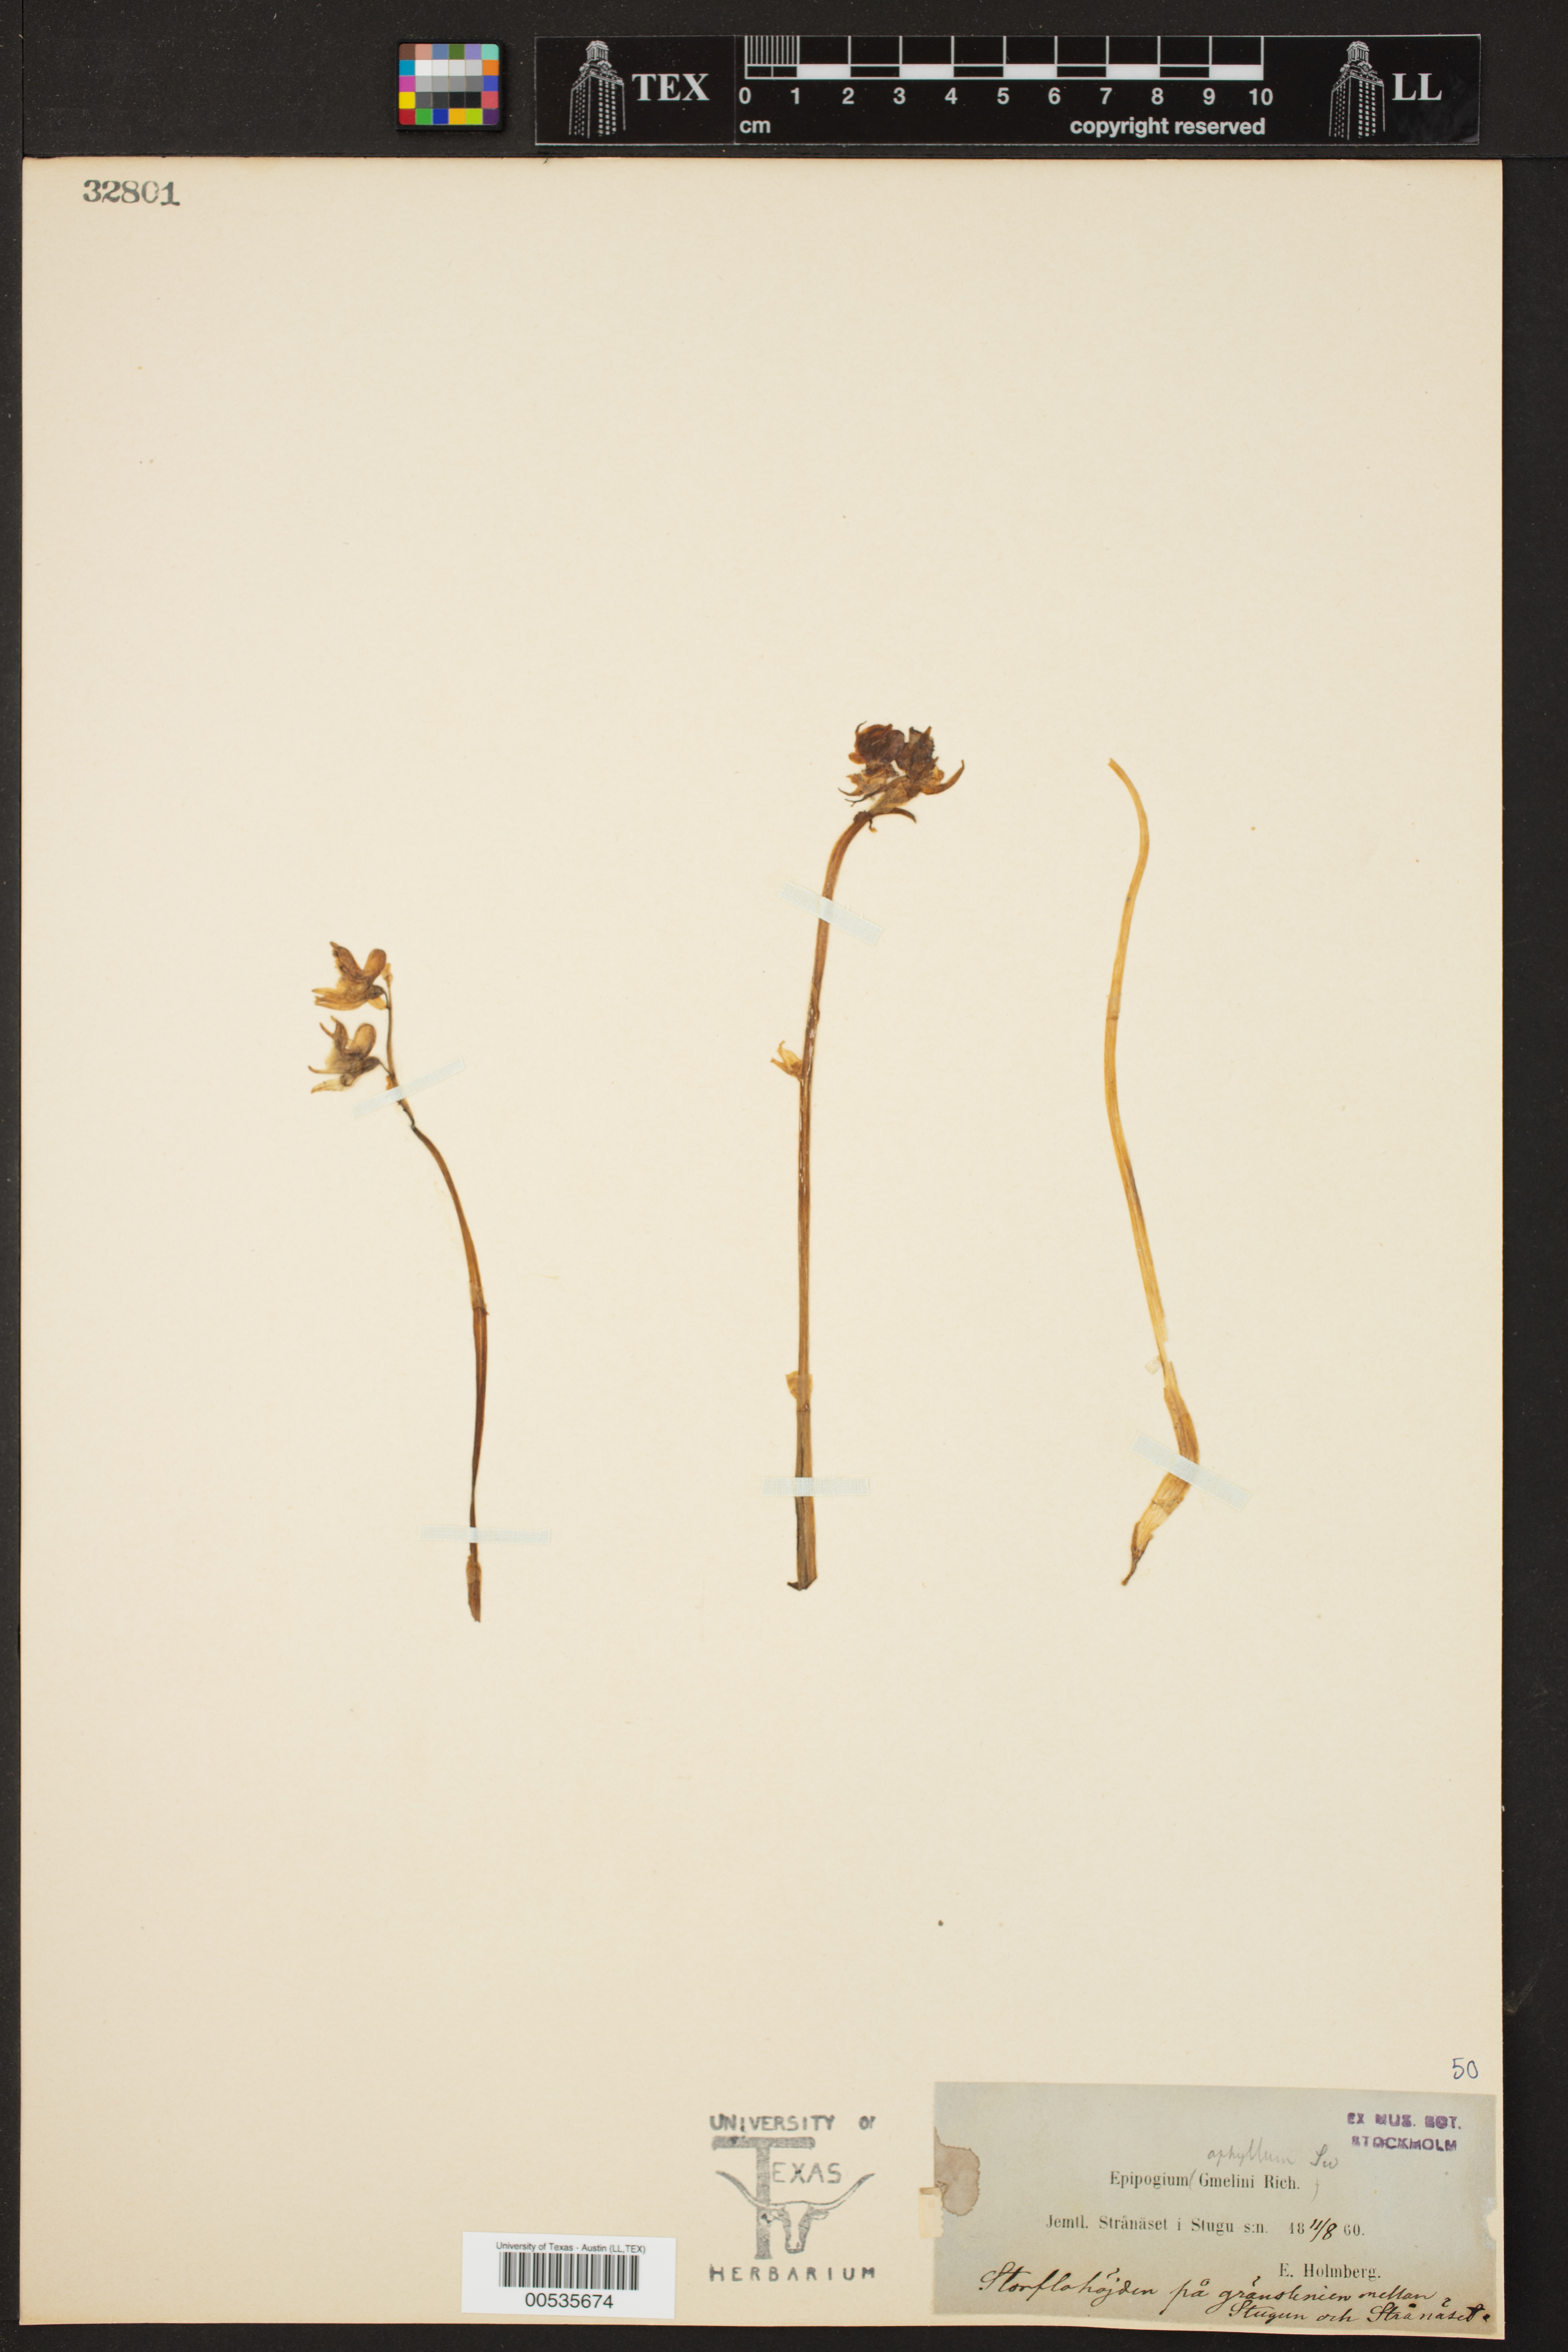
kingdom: Plantae
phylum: Tracheophyta
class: Liliopsida
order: Asparagales
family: Orchidaceae
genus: Epipogium
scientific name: Epipogium aphyllum
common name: Ghost orchid
